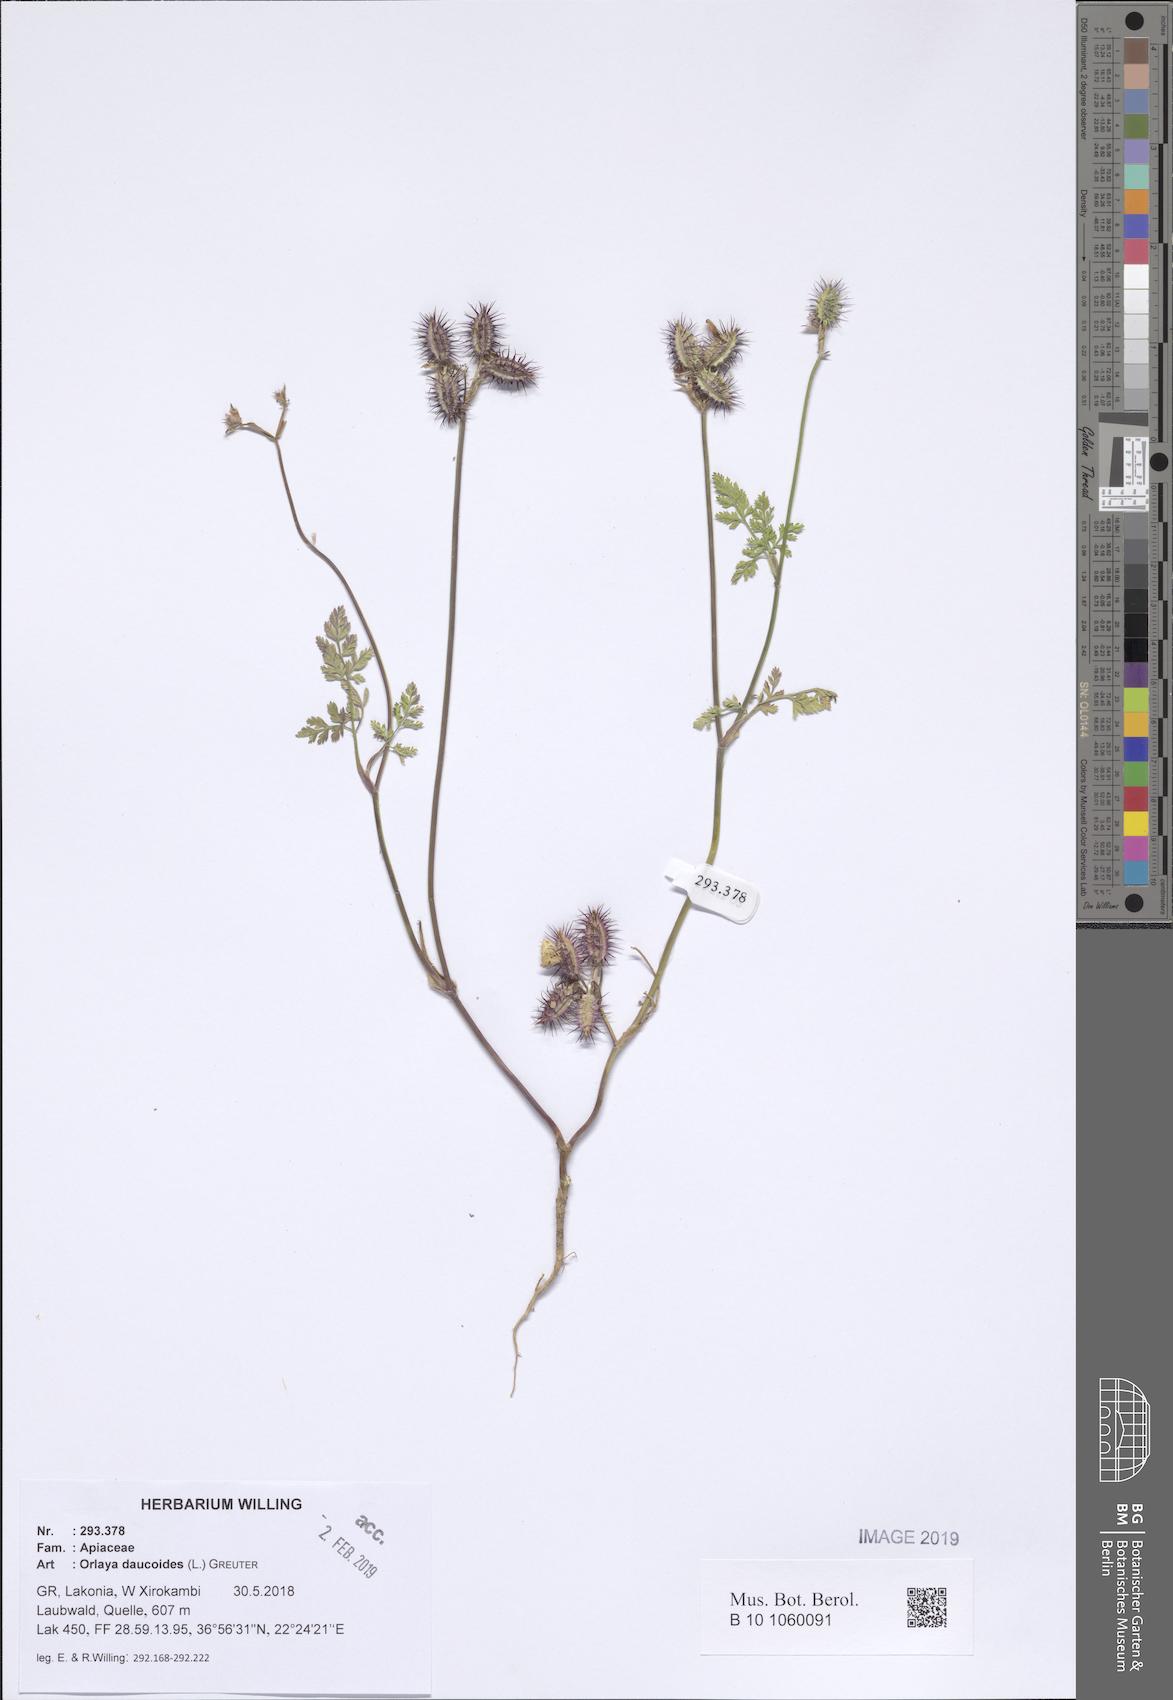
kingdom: Plantae
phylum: Tracheophyta
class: Magnoliopsida
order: Apiales
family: Apiaceae
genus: Orlaya
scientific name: Orlaya daucoides
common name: Flat-fruit orlaya
